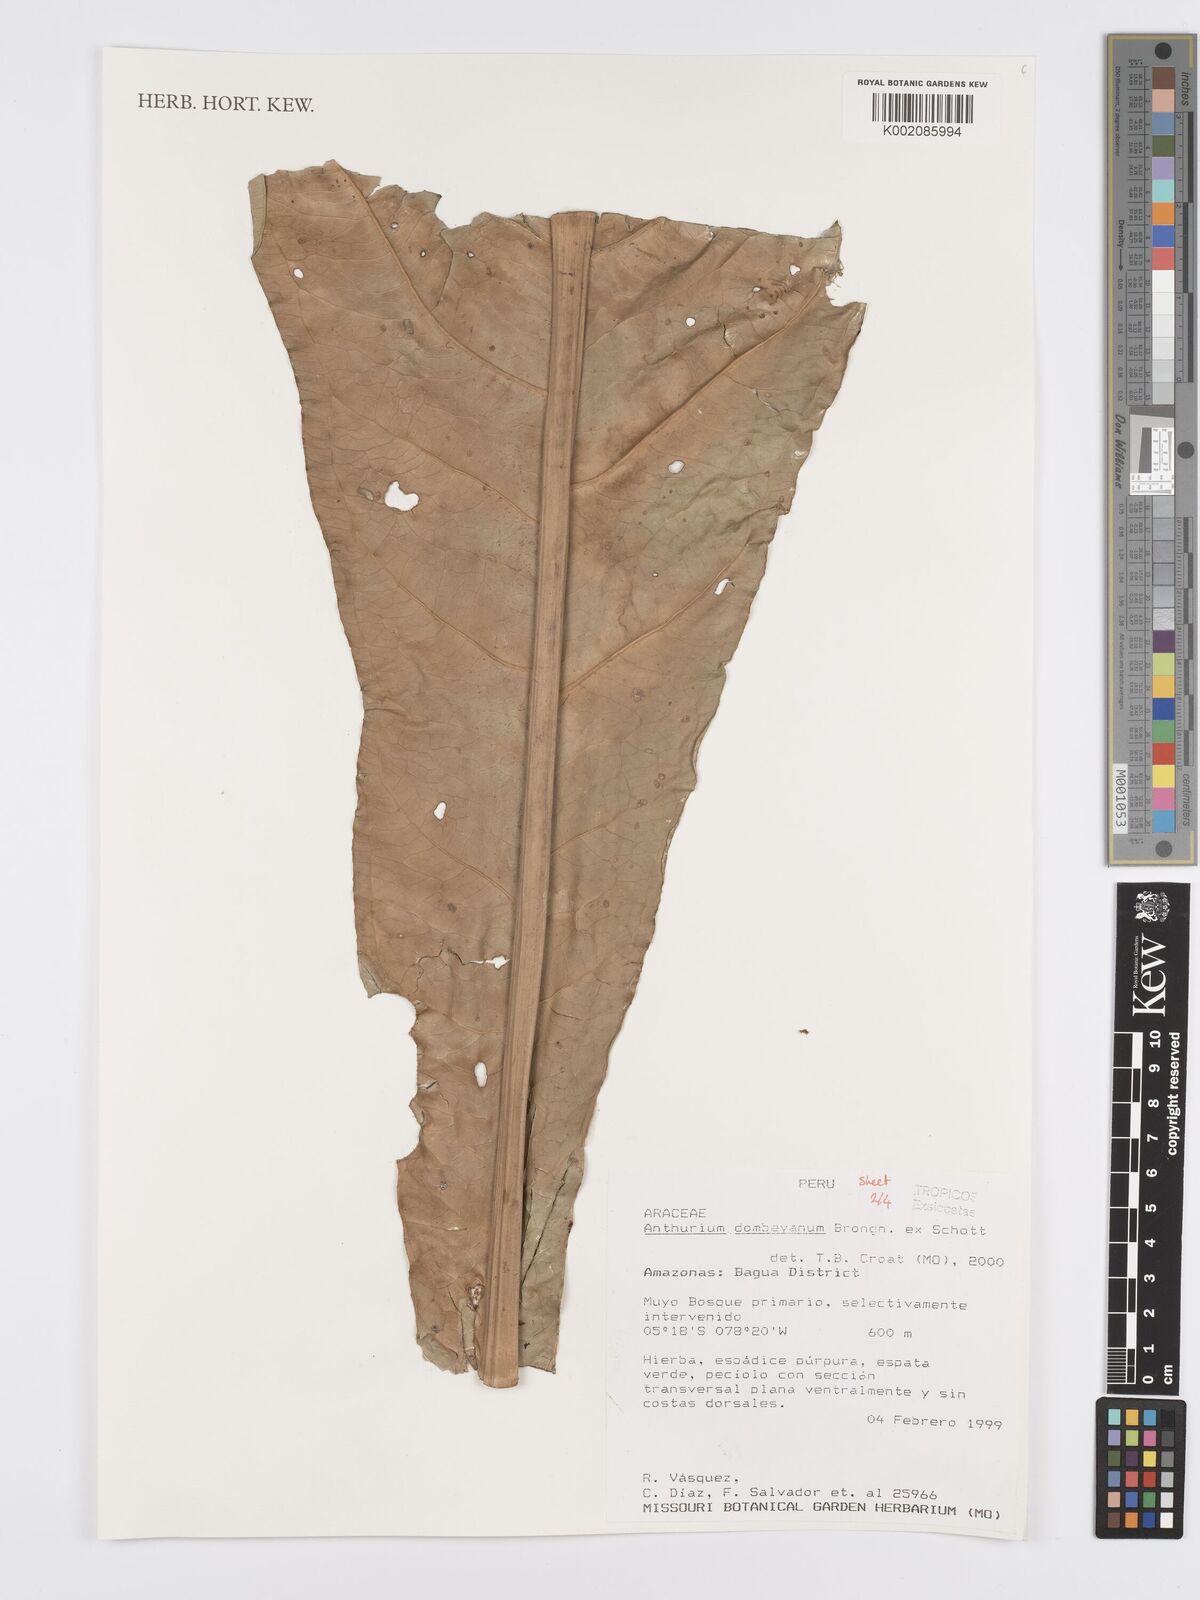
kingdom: Plantae
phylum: Tracheophyta
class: Liliopsida
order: Alismatales
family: Araceae
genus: Anthurium
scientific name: Anthurium dombeyanum
